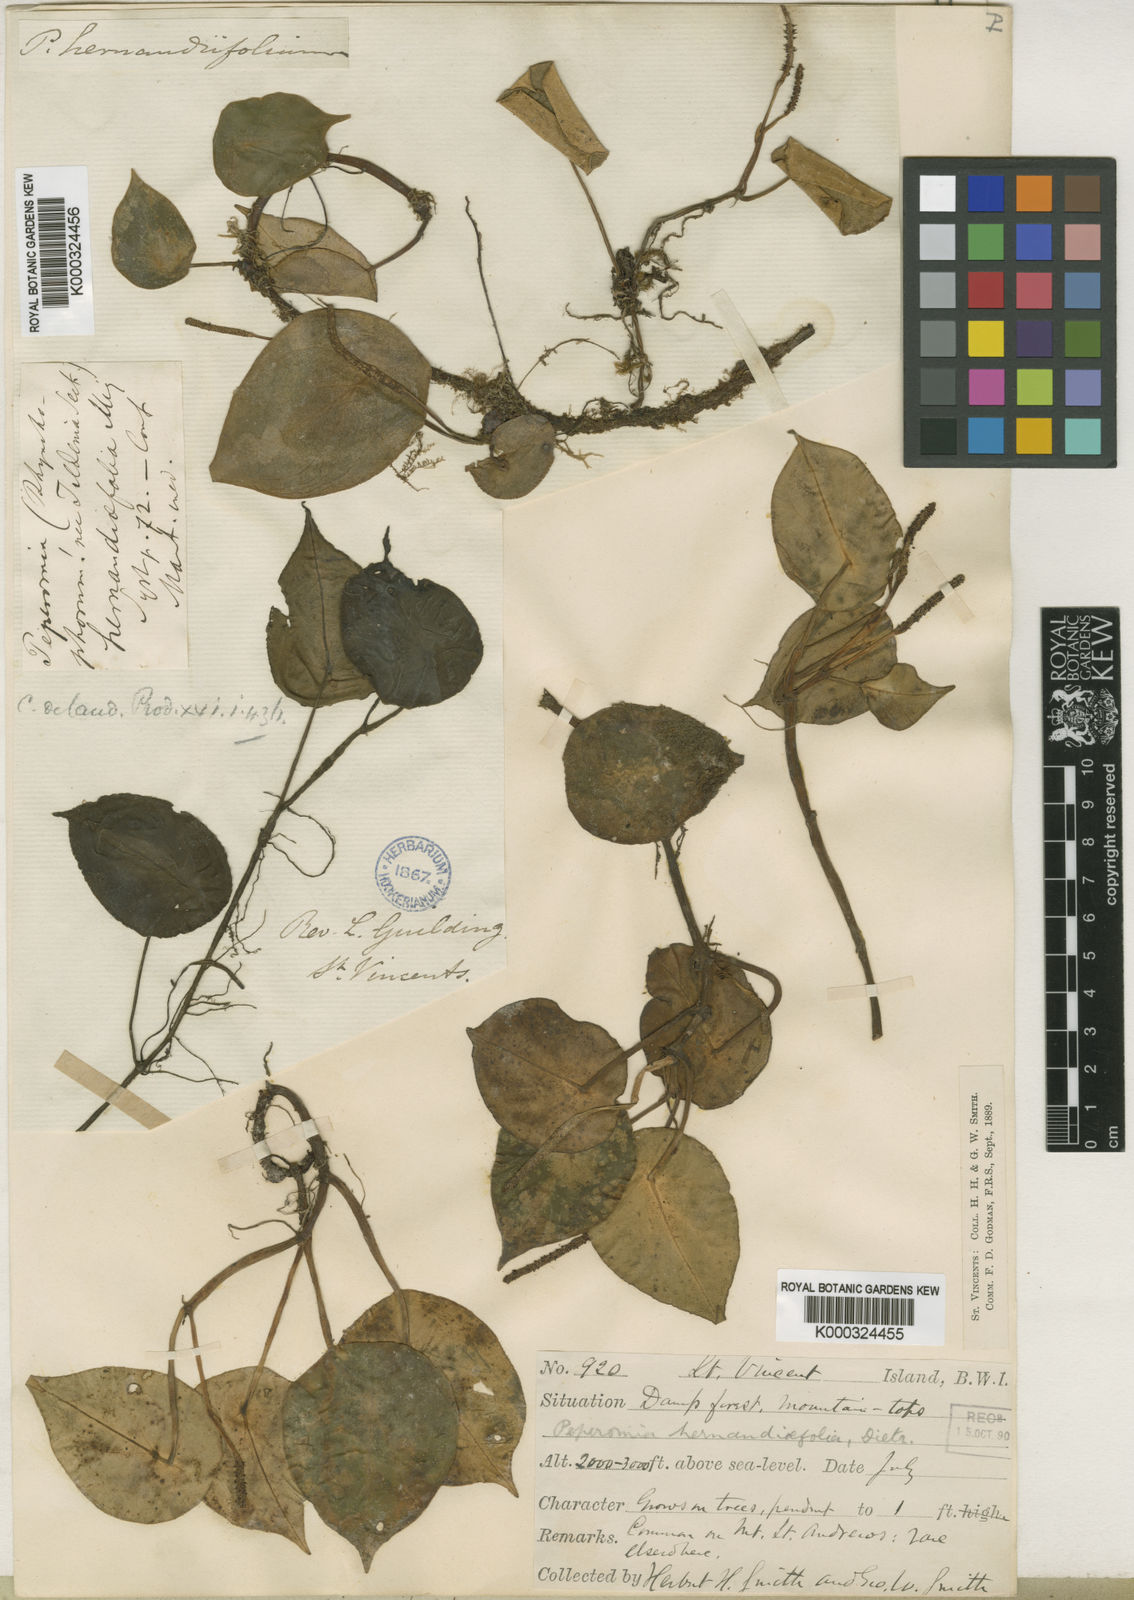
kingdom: Plantae
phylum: Tracheophyta
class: Magnoliopsida
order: Piperales
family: Piperaceae
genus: Peperomia
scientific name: Peperomia
